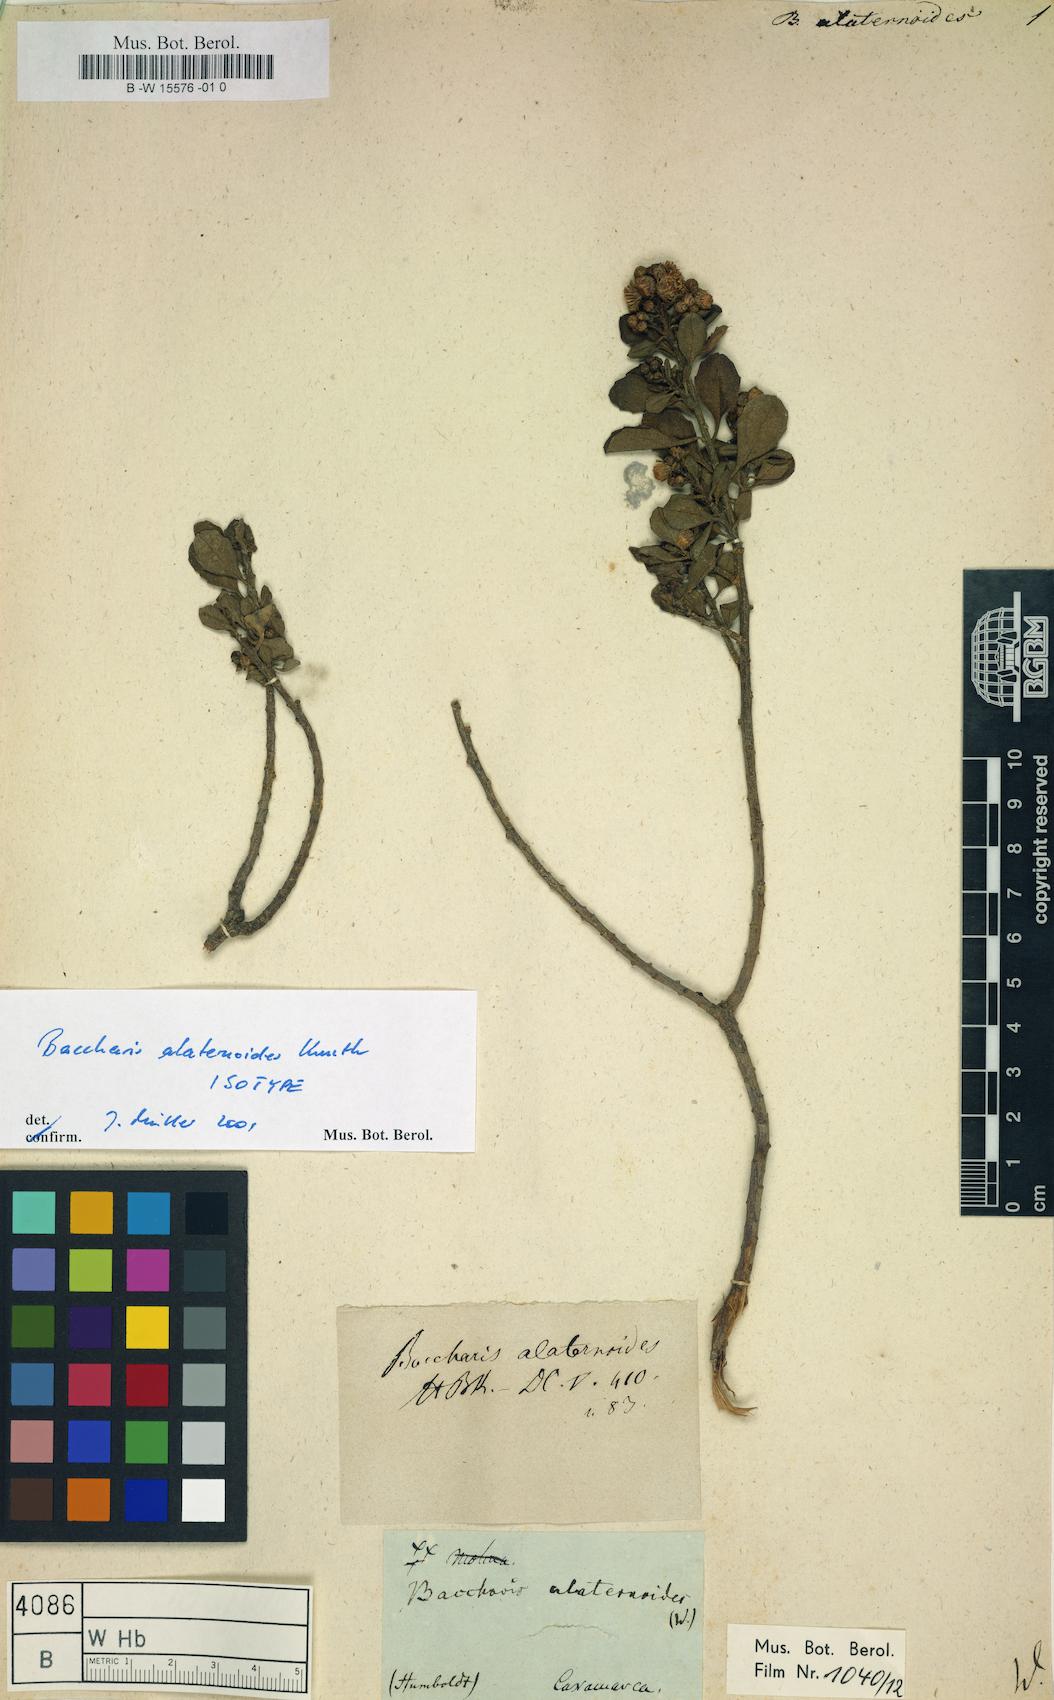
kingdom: Plantae
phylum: Tracheophyta
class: Magnoliopsida
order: Asterales
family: Asteraceae
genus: Baccharis
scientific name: Baccharis alaternoides
